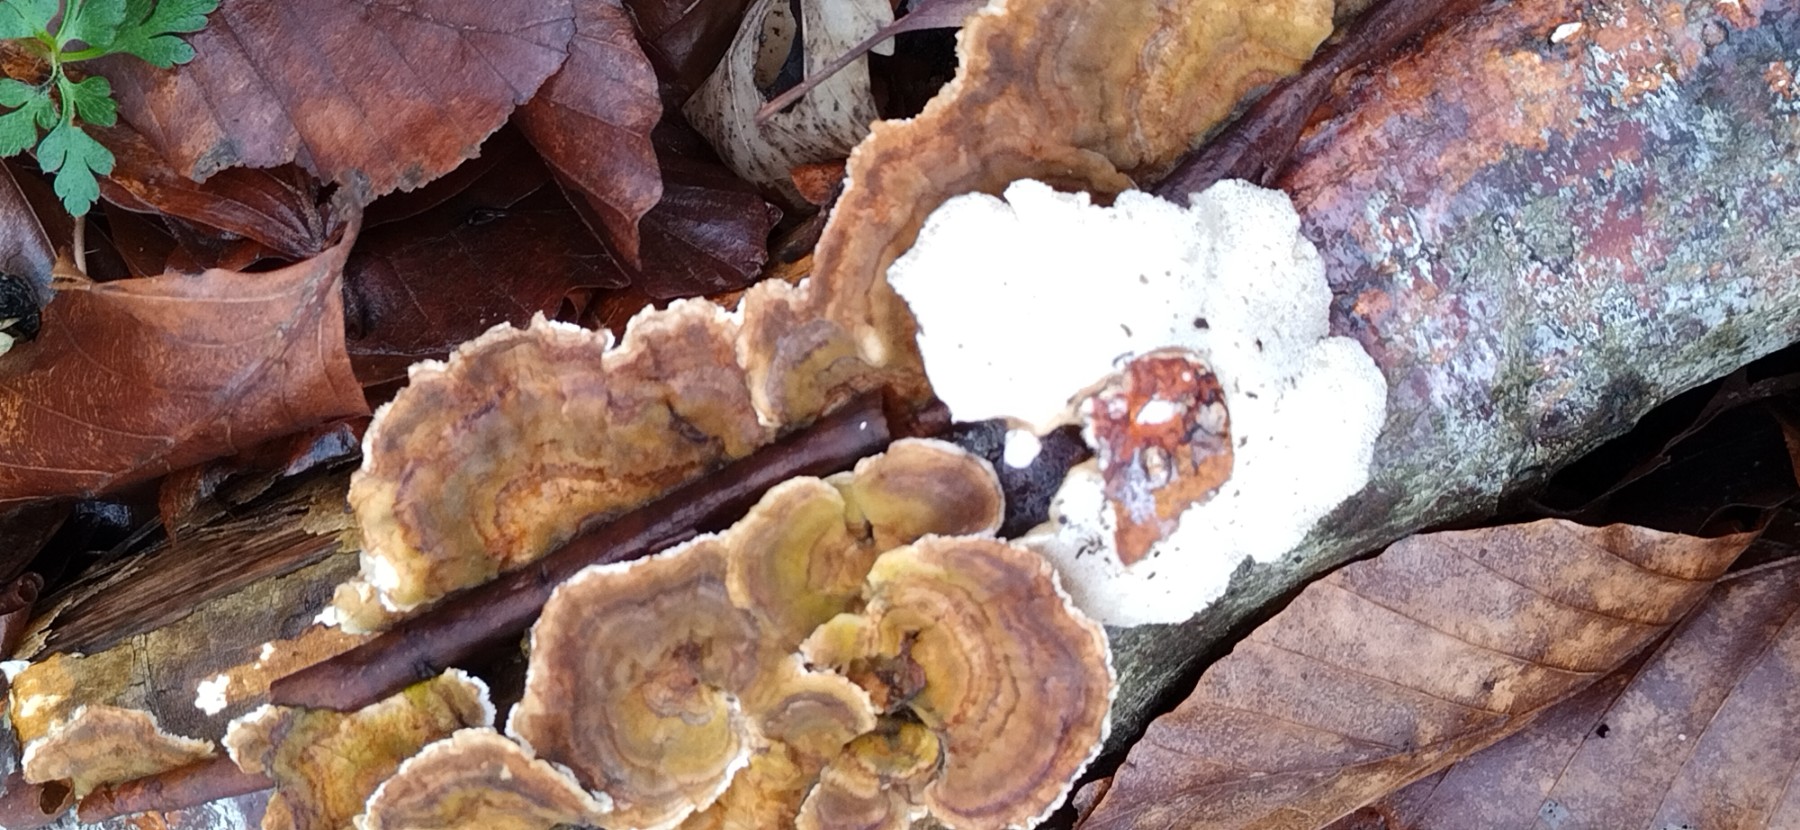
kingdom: Fungi
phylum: Basidiomycota
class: Agaricomycetes
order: Polyporales
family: Polyporaceae
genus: Trametes
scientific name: Trametes versicolor
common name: broget læderporesvamp
